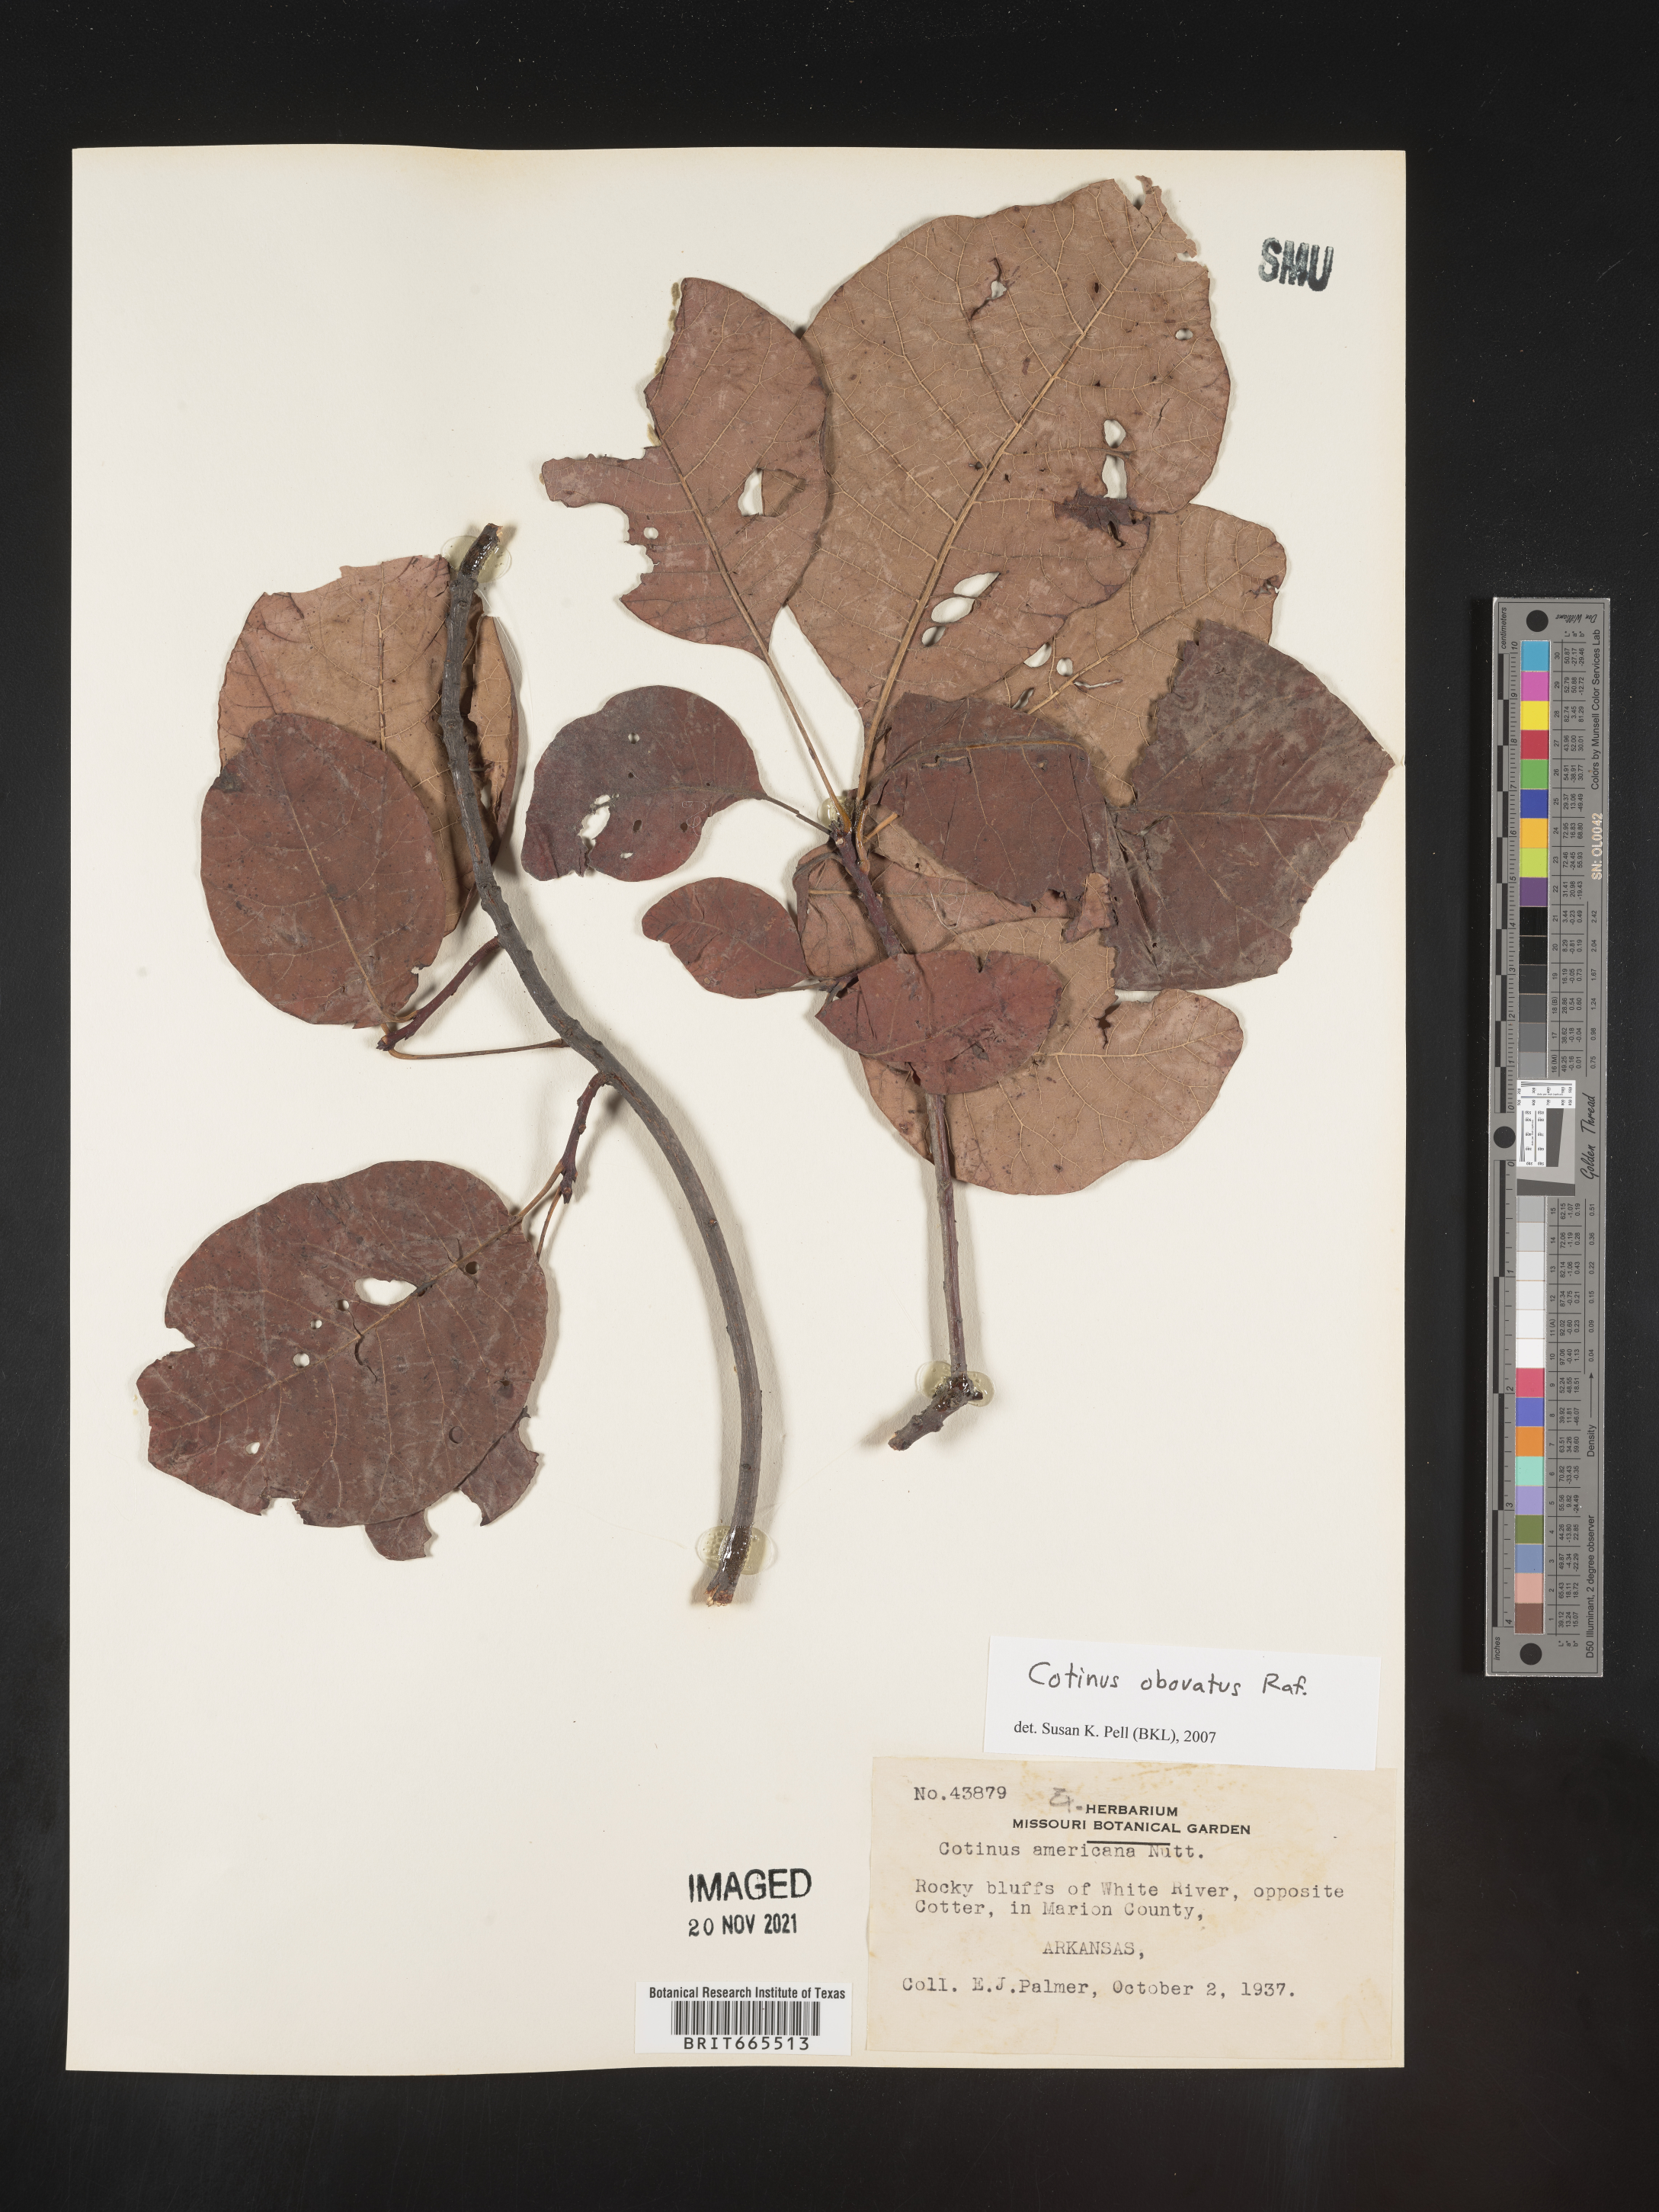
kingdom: Plantae
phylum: Tracheophyta
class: Magnoliopsida
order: Sapindales
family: Anacardiaceae
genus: Cotinus
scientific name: Cotinus obovatus
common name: Chittamwood
